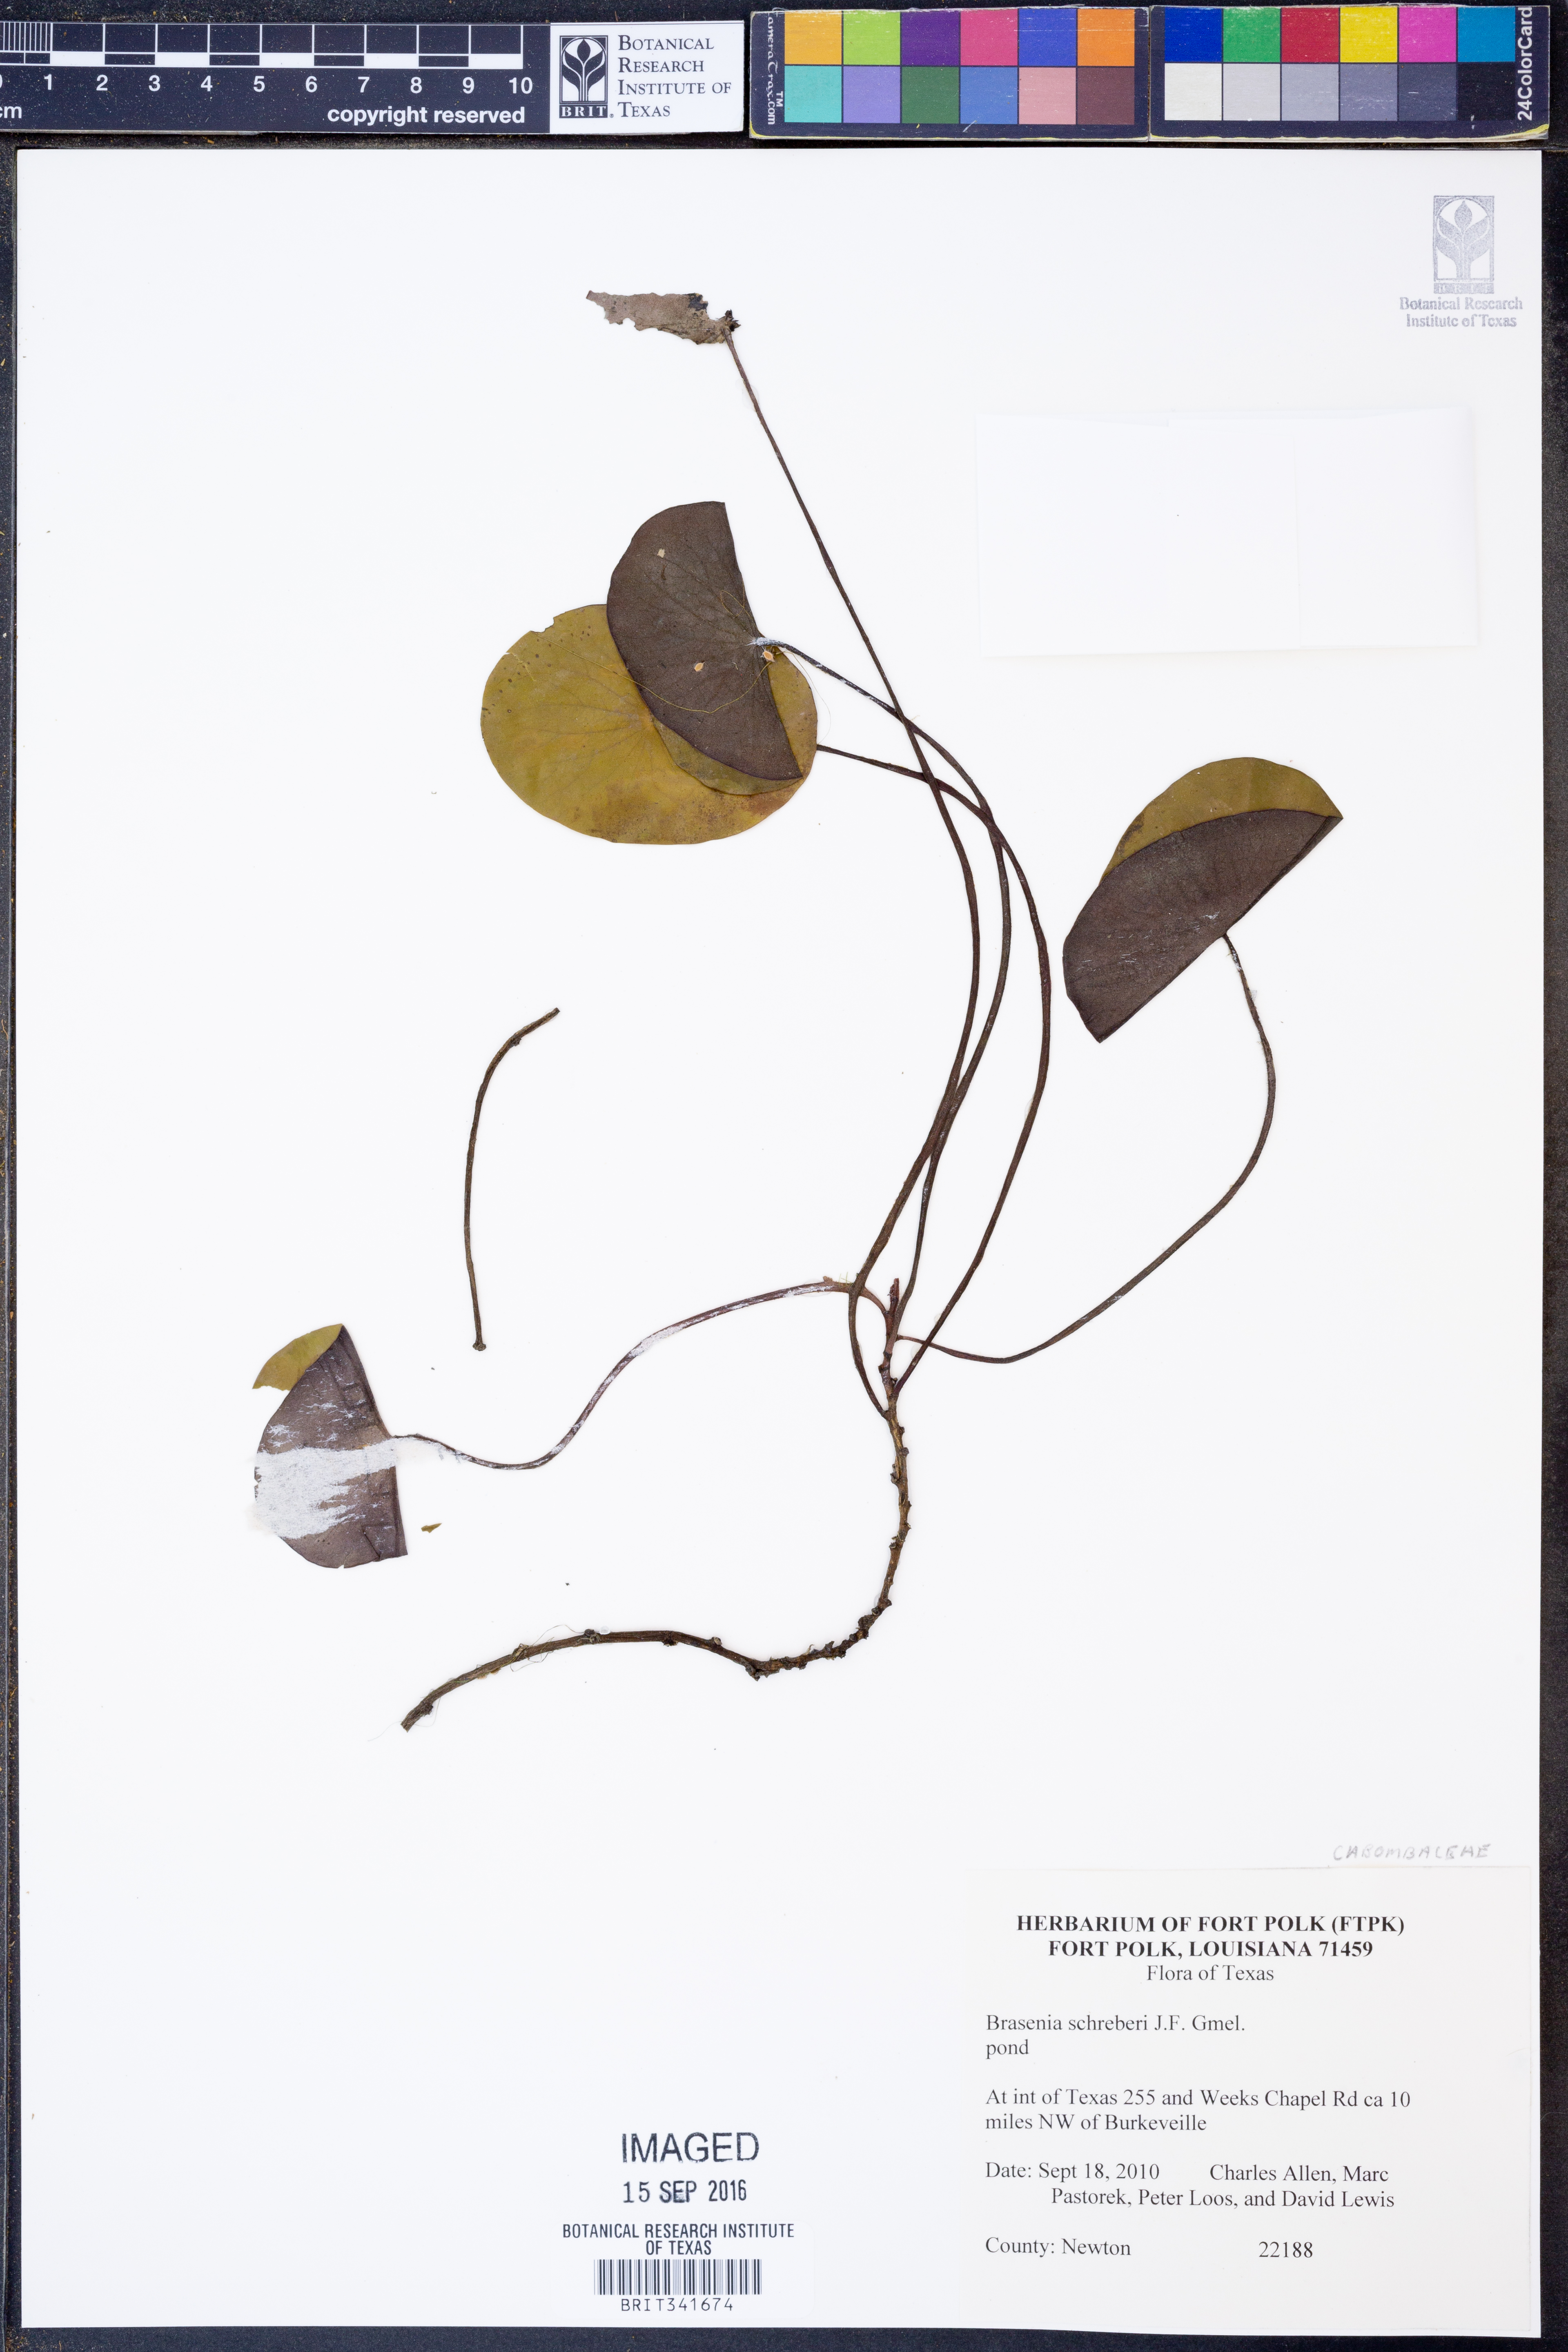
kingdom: Plantae
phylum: Tracheophyta
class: Magnoliopsida
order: Nymphaeales
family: Cabombaceae
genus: Brasenia
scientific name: Brasenia schreberi
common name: Water-shield
